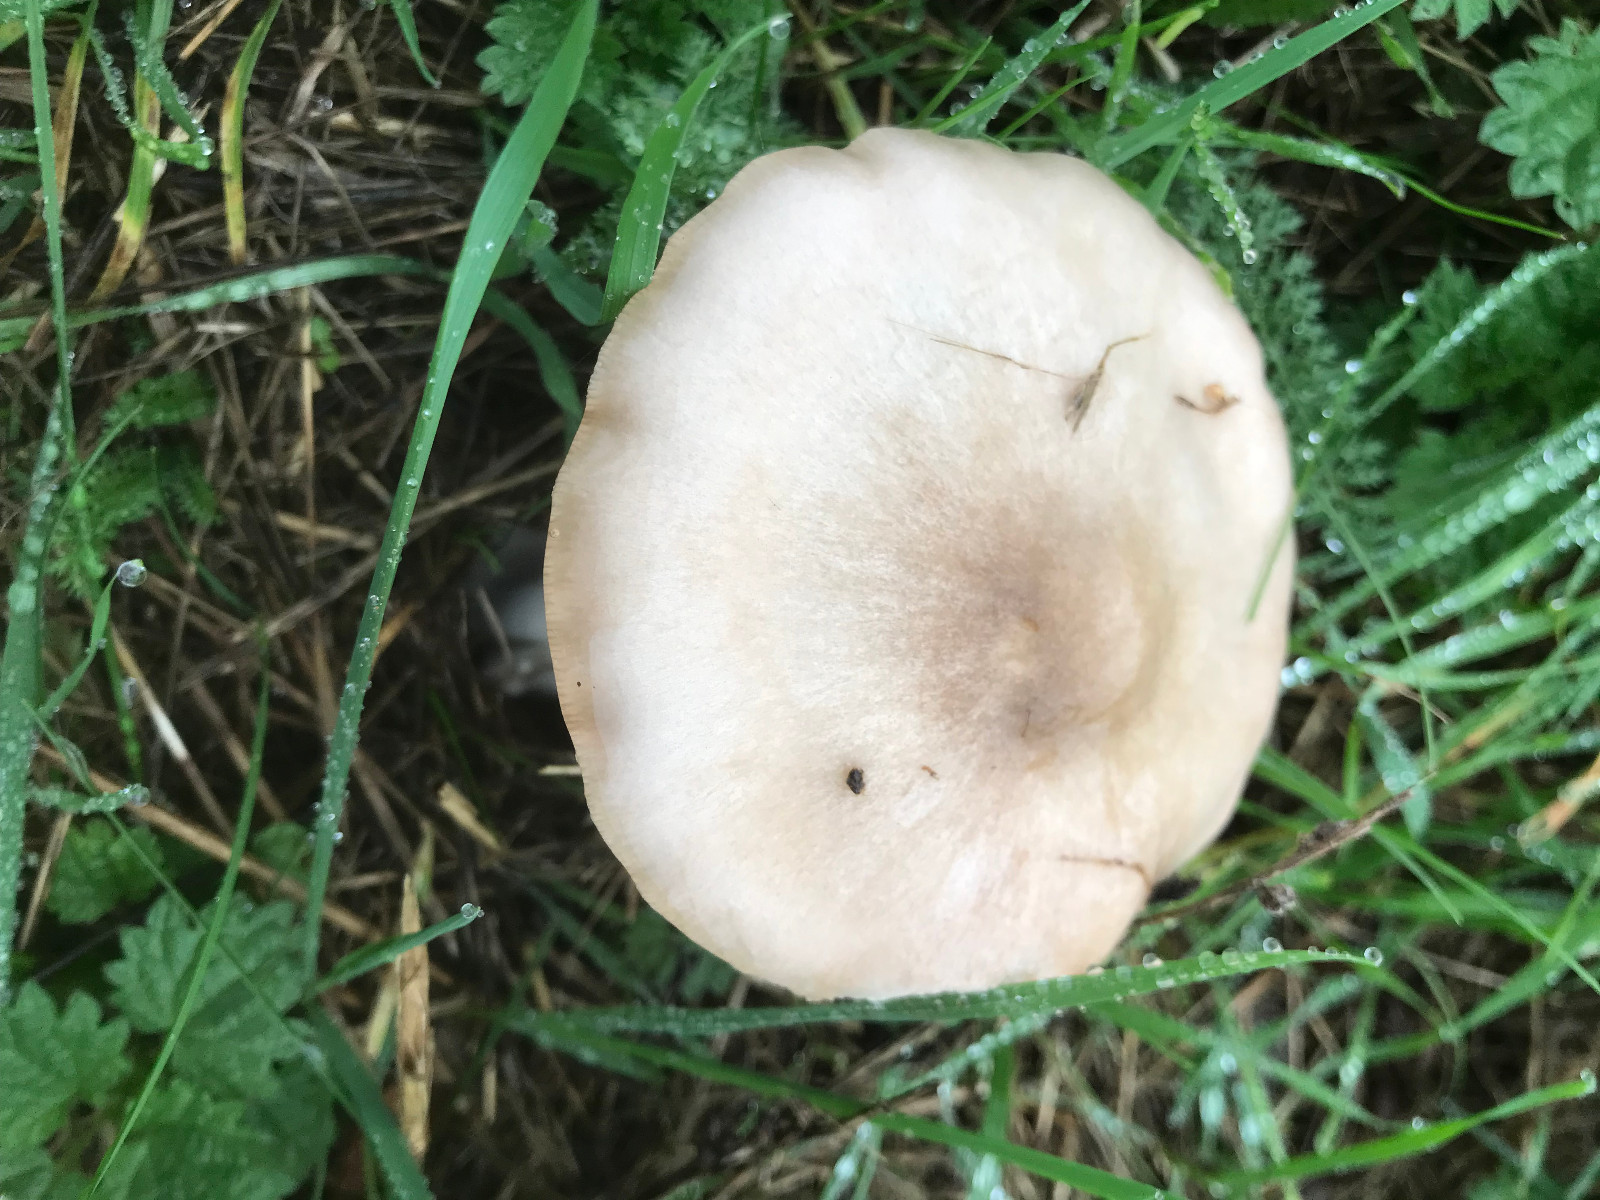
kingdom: Fungi
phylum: Basidiomycota
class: Agaricomycetes
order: Agaricales
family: Pluteaceae
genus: Volvopluteus
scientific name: Volvopluteus gloiocephalus
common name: høj posesvamp
